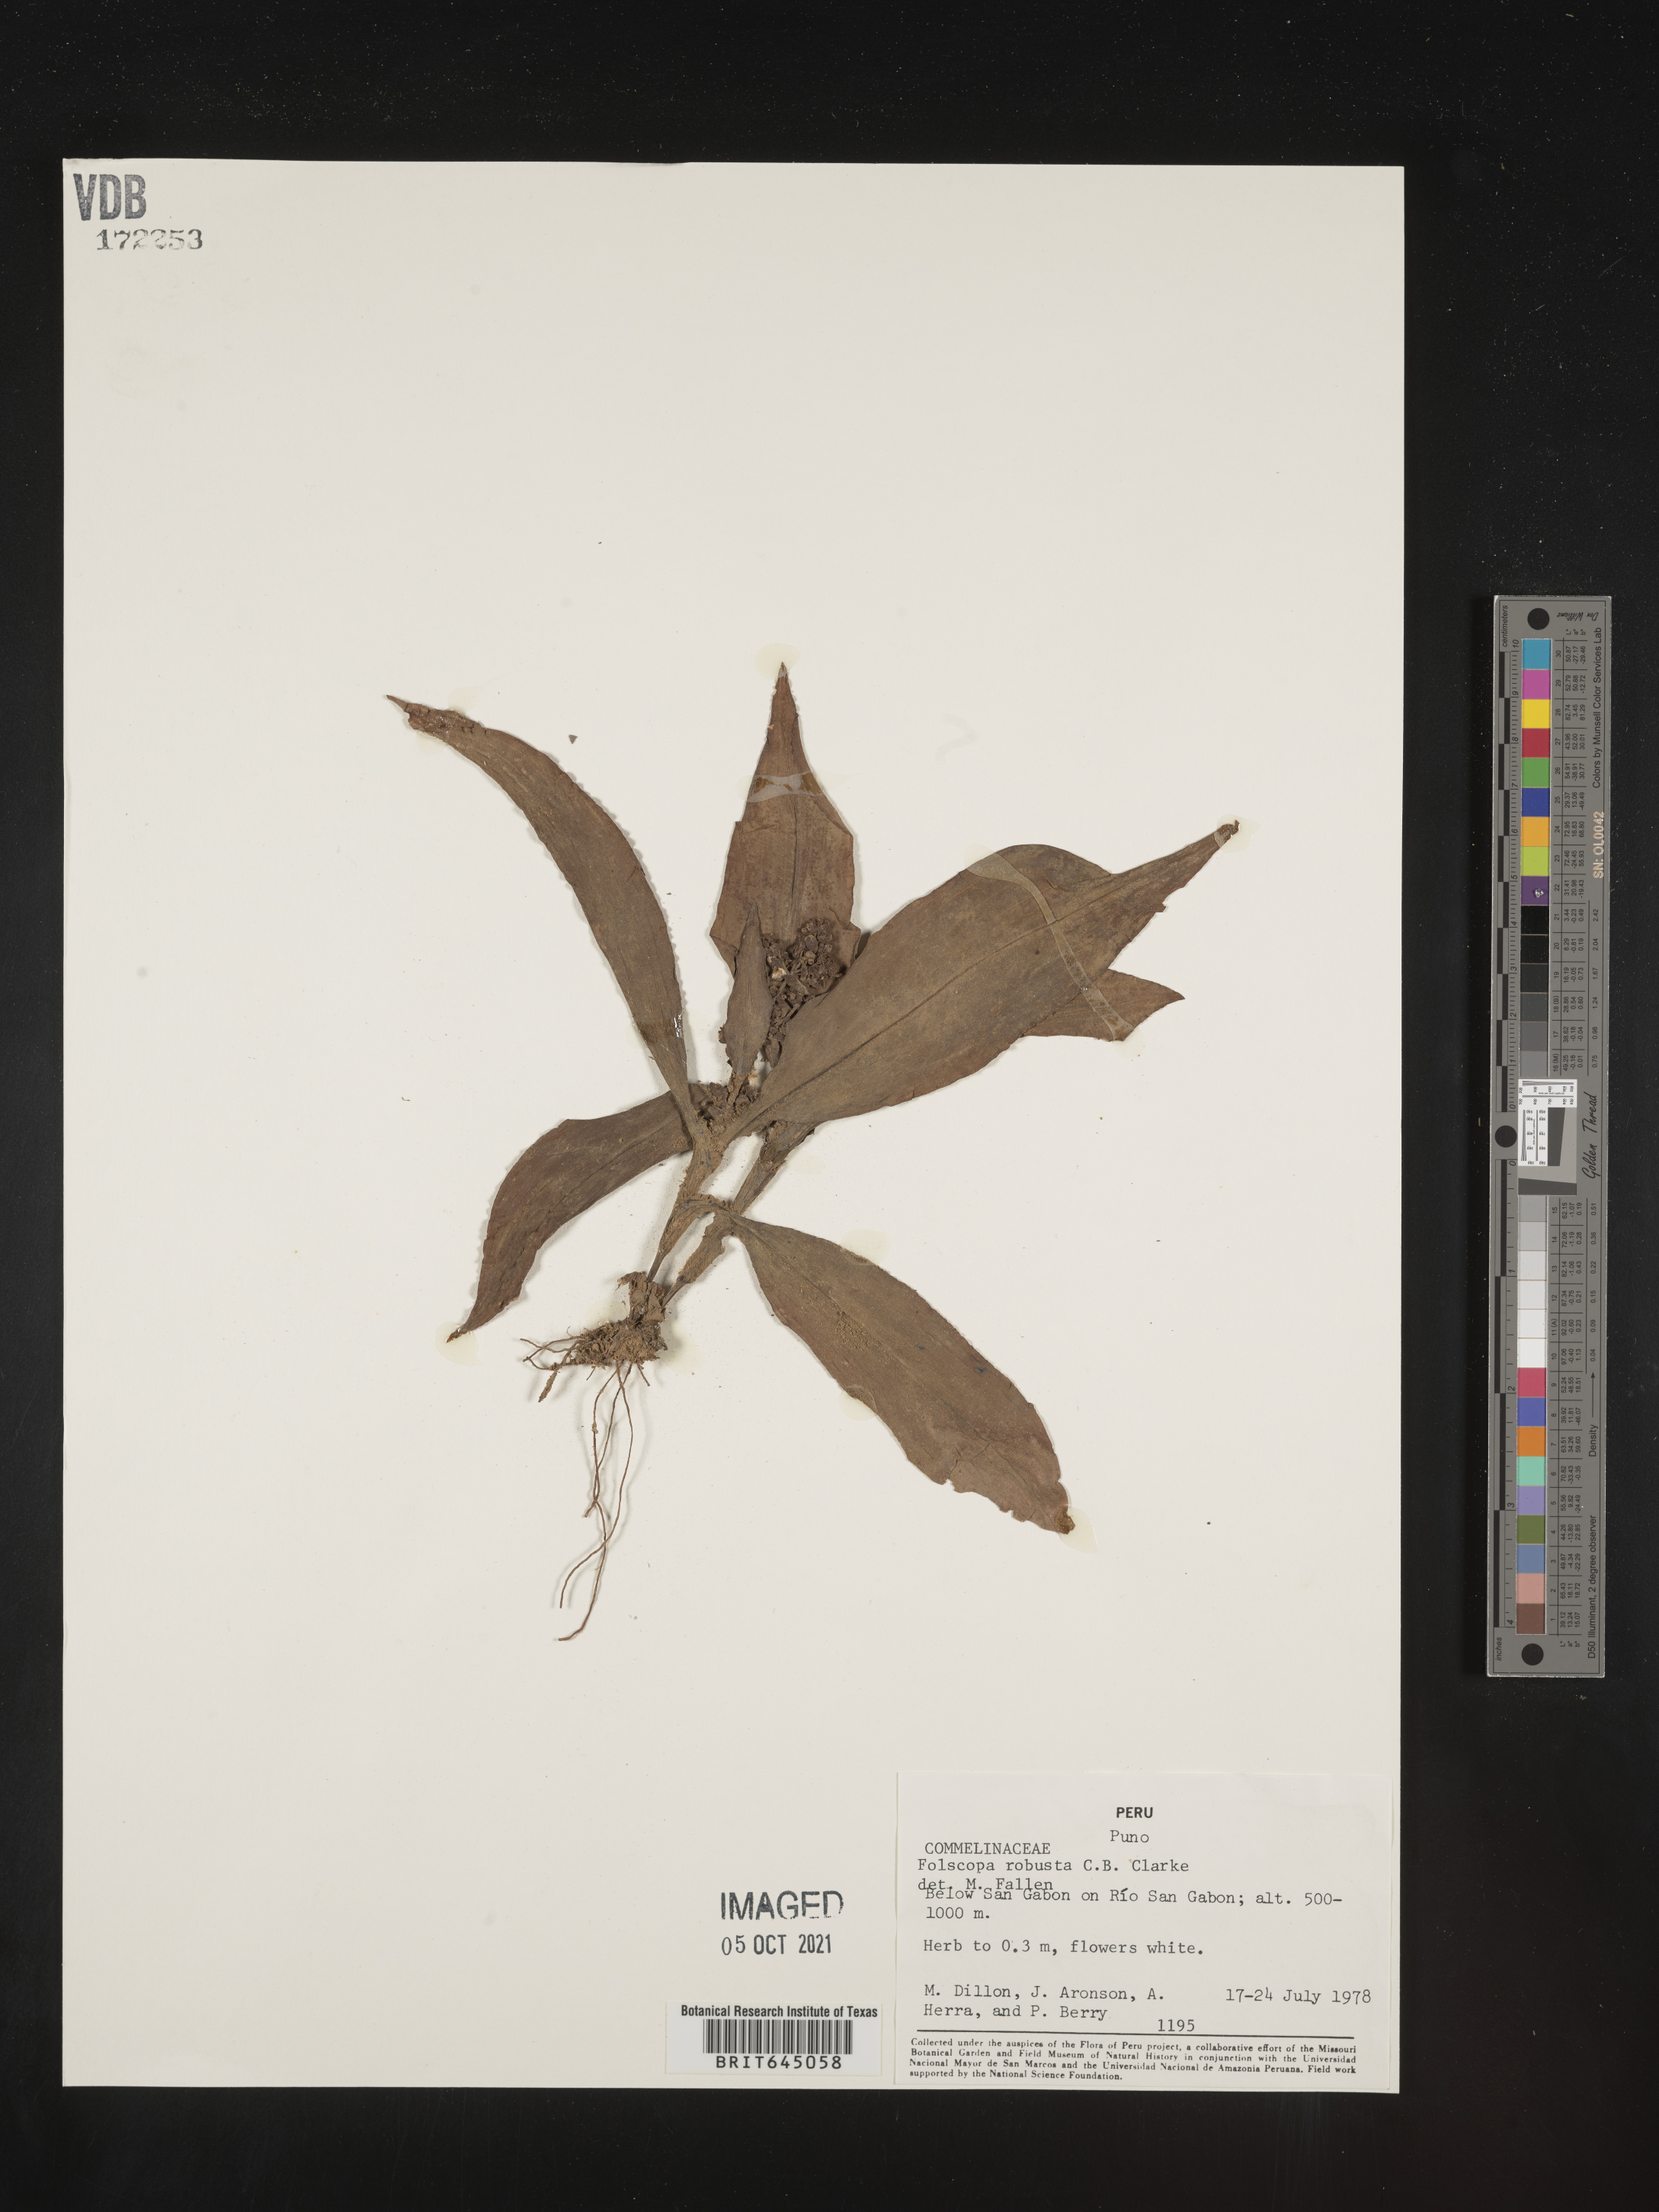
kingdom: Plantae
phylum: Tracheophyta
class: Liliopsida
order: Commelinales
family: Commelinaceae
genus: Floscopa
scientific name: Floscopa robusta
